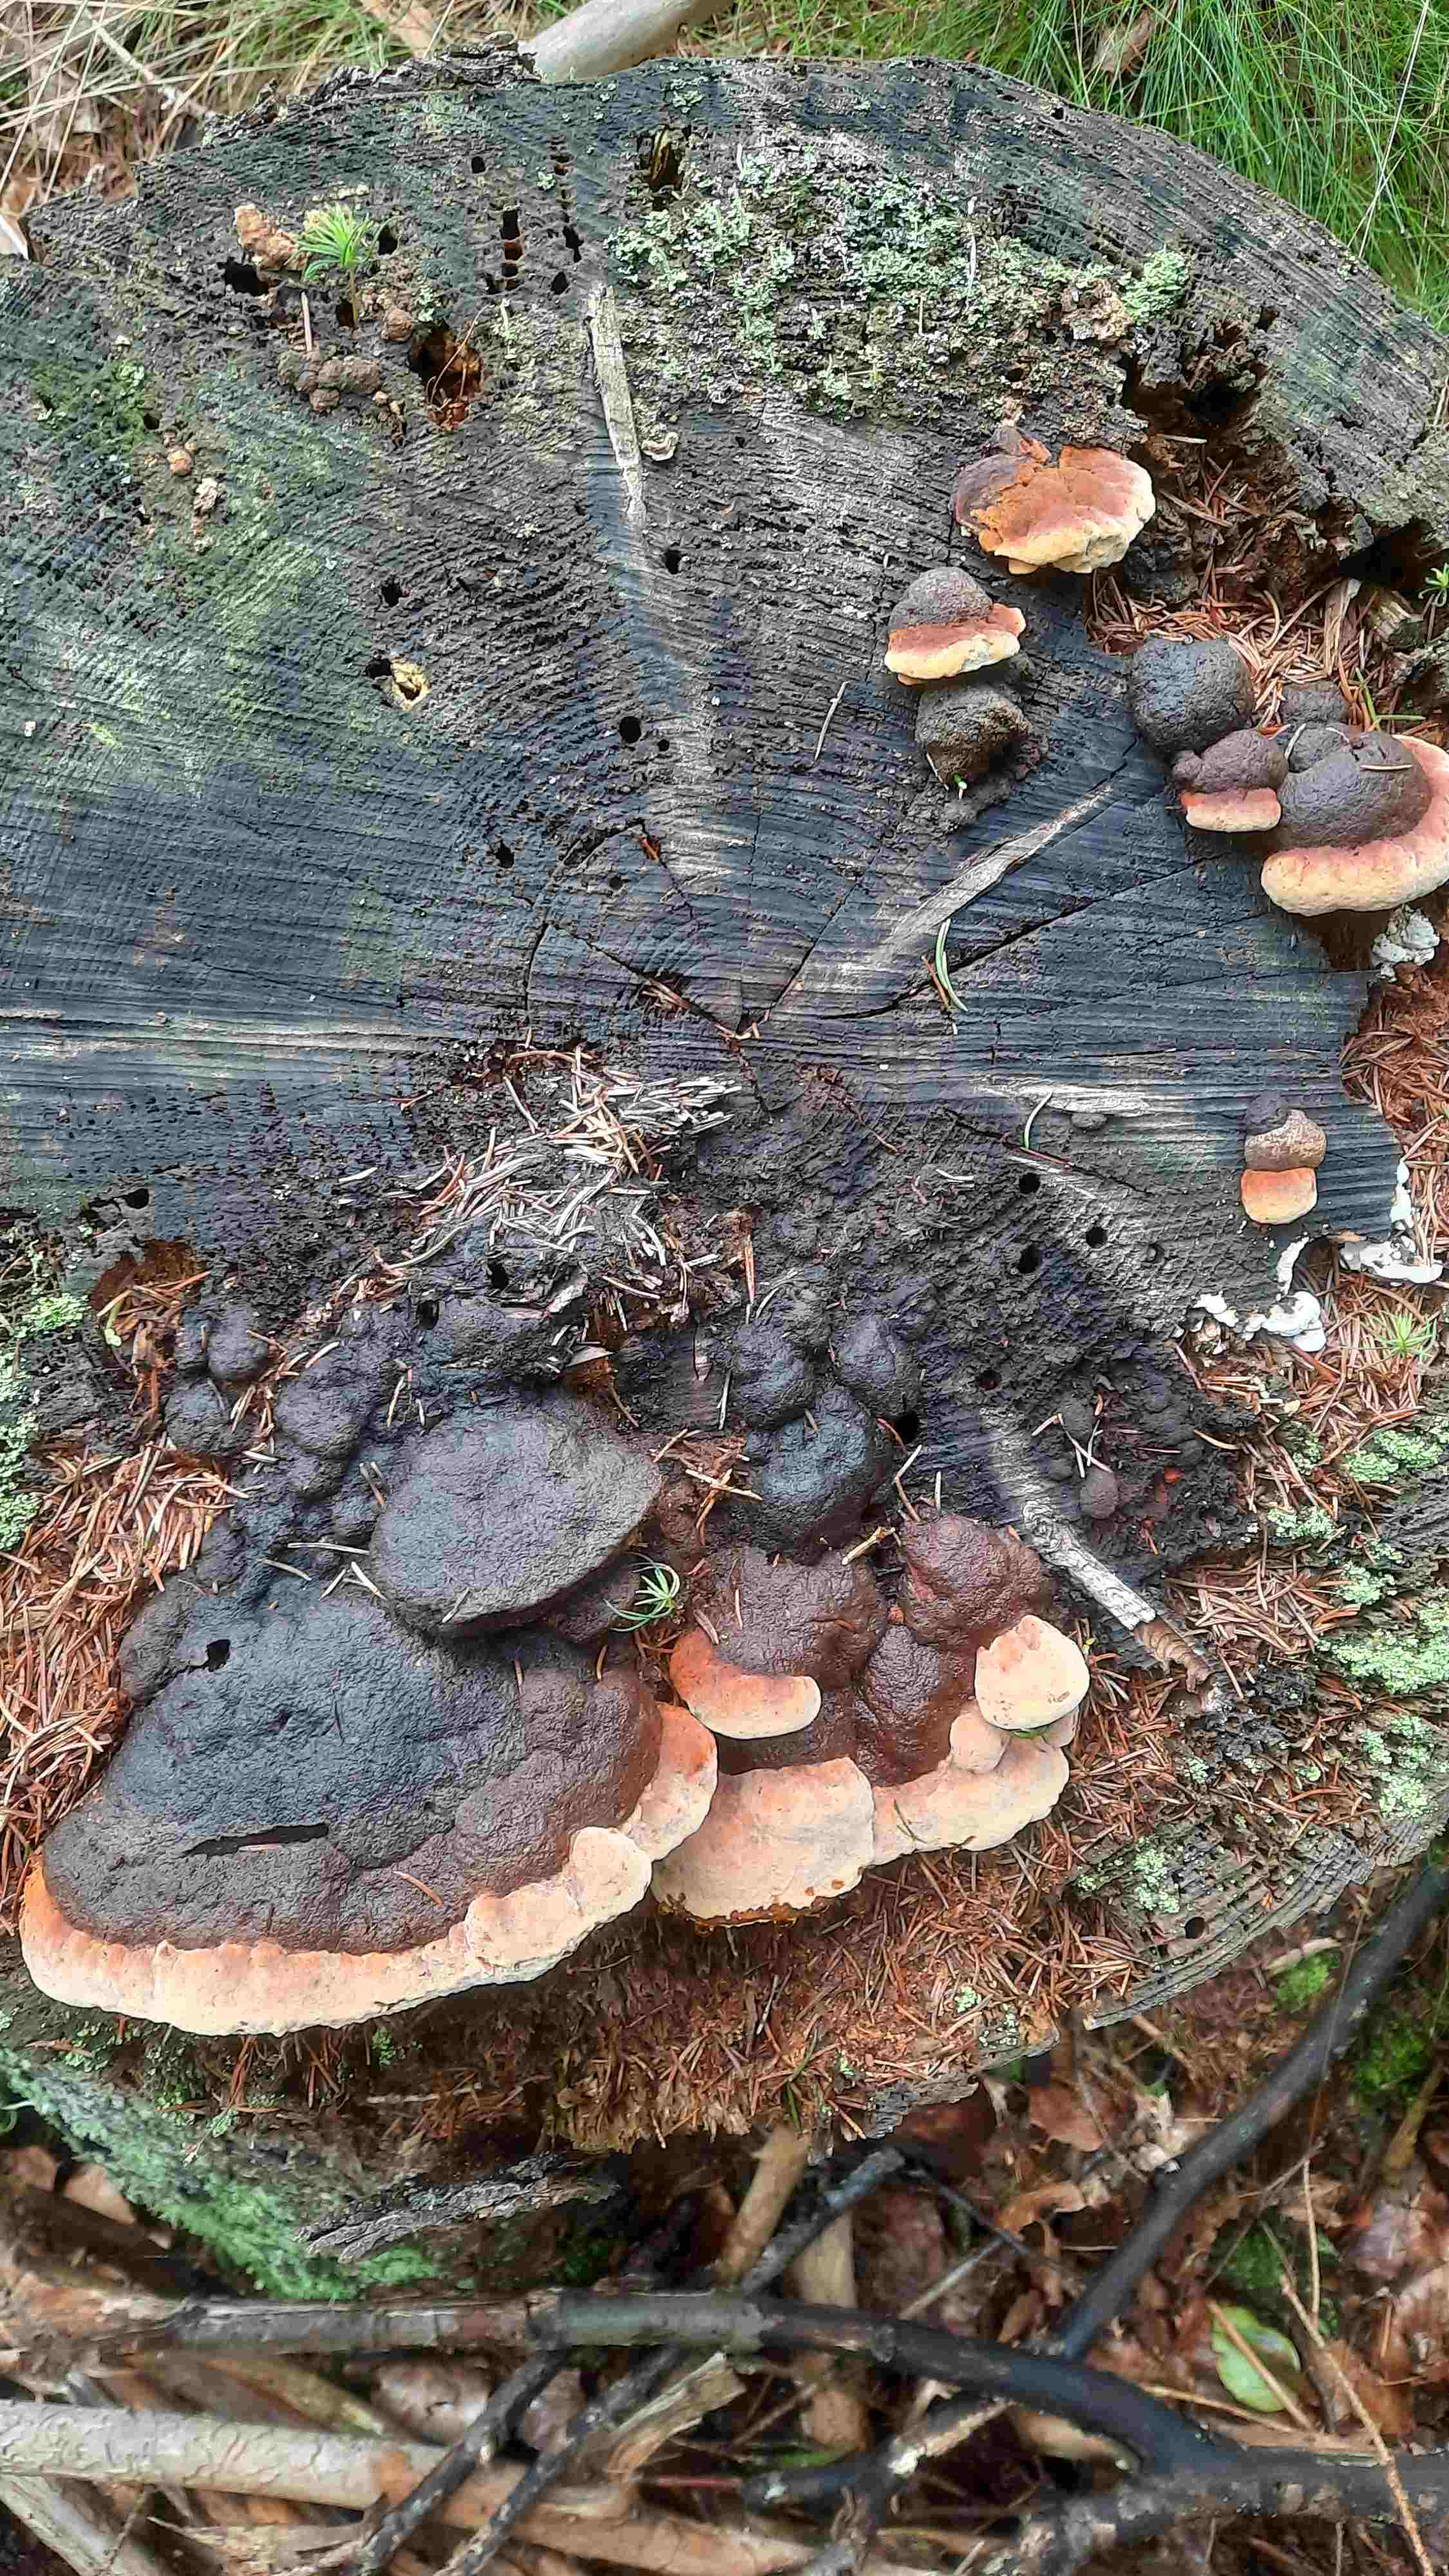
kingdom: Fungi
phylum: Basidiomycota
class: Agaricomycetes
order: Gloeophyllales
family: Gloeophyllaceae
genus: Gloeophyllum
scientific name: Gloeophyllum odoratum
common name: duftende korkhat
